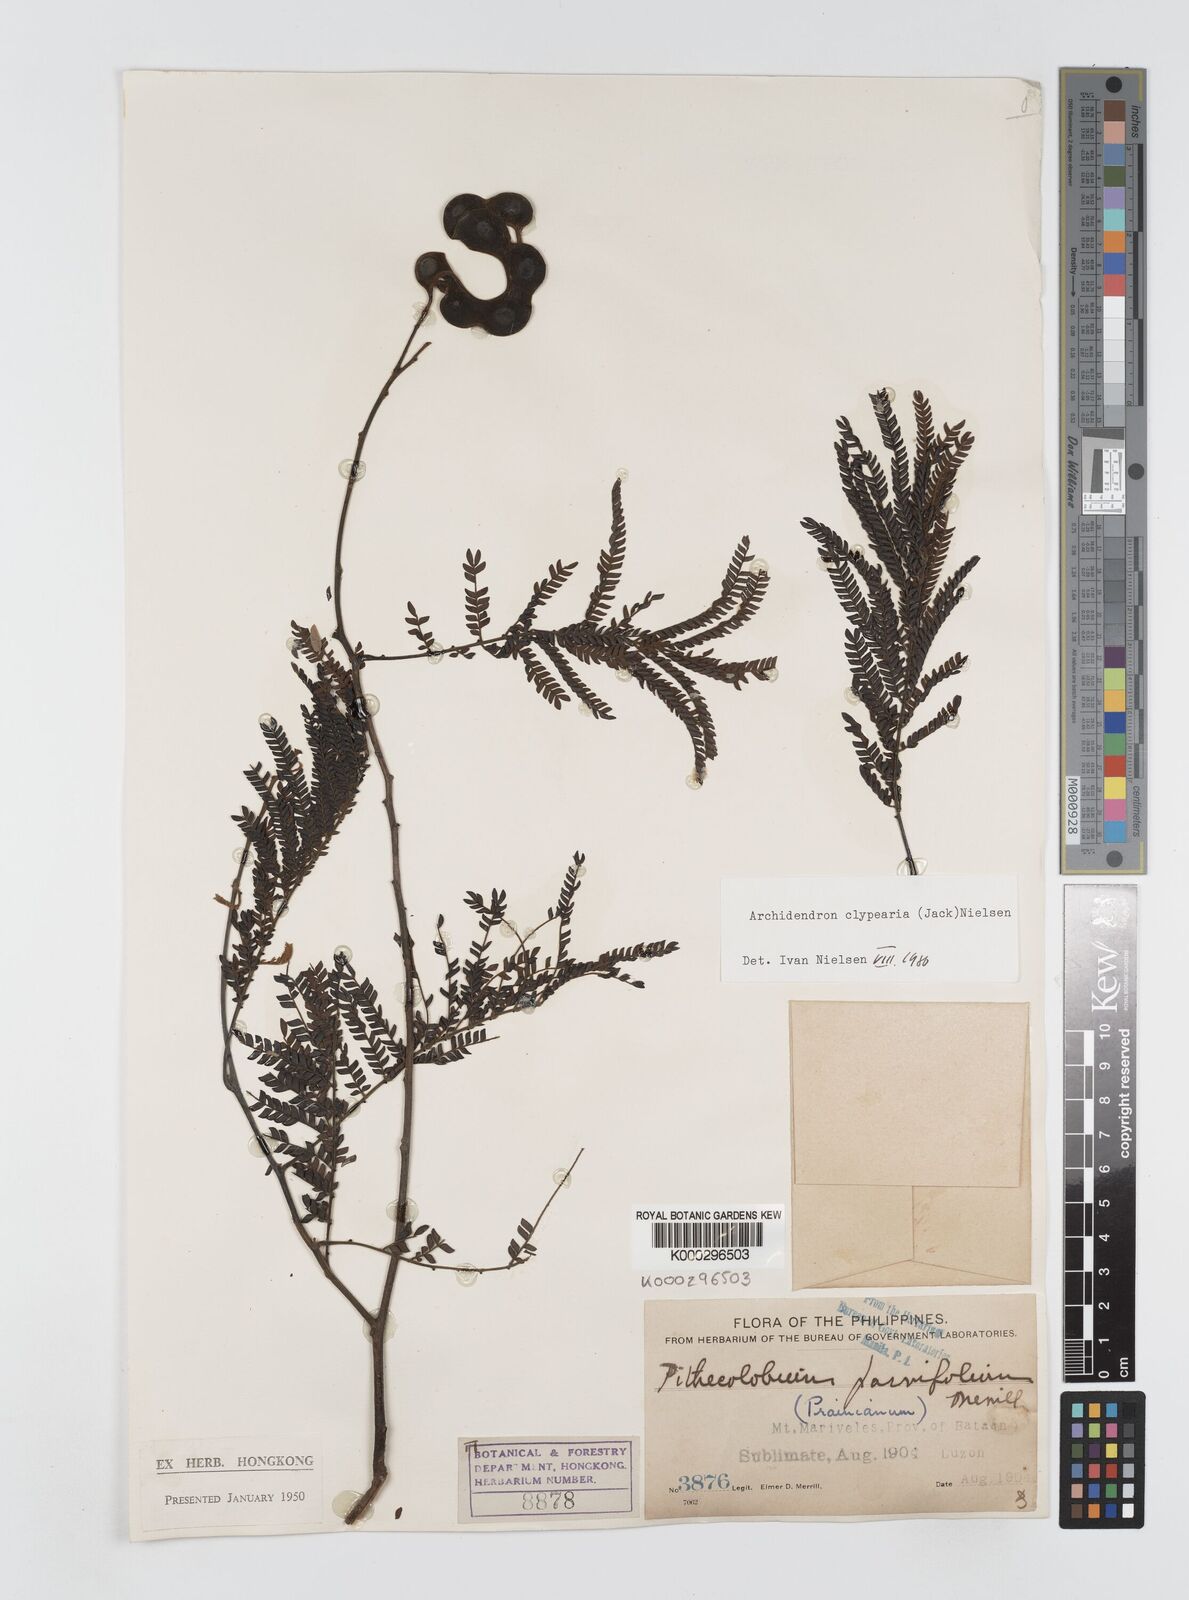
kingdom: Plantae
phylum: Tracheophyta
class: Magnoliopsida
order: Fabales
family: Fabaceae
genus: Archidendron
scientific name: Archidendron clypearia
